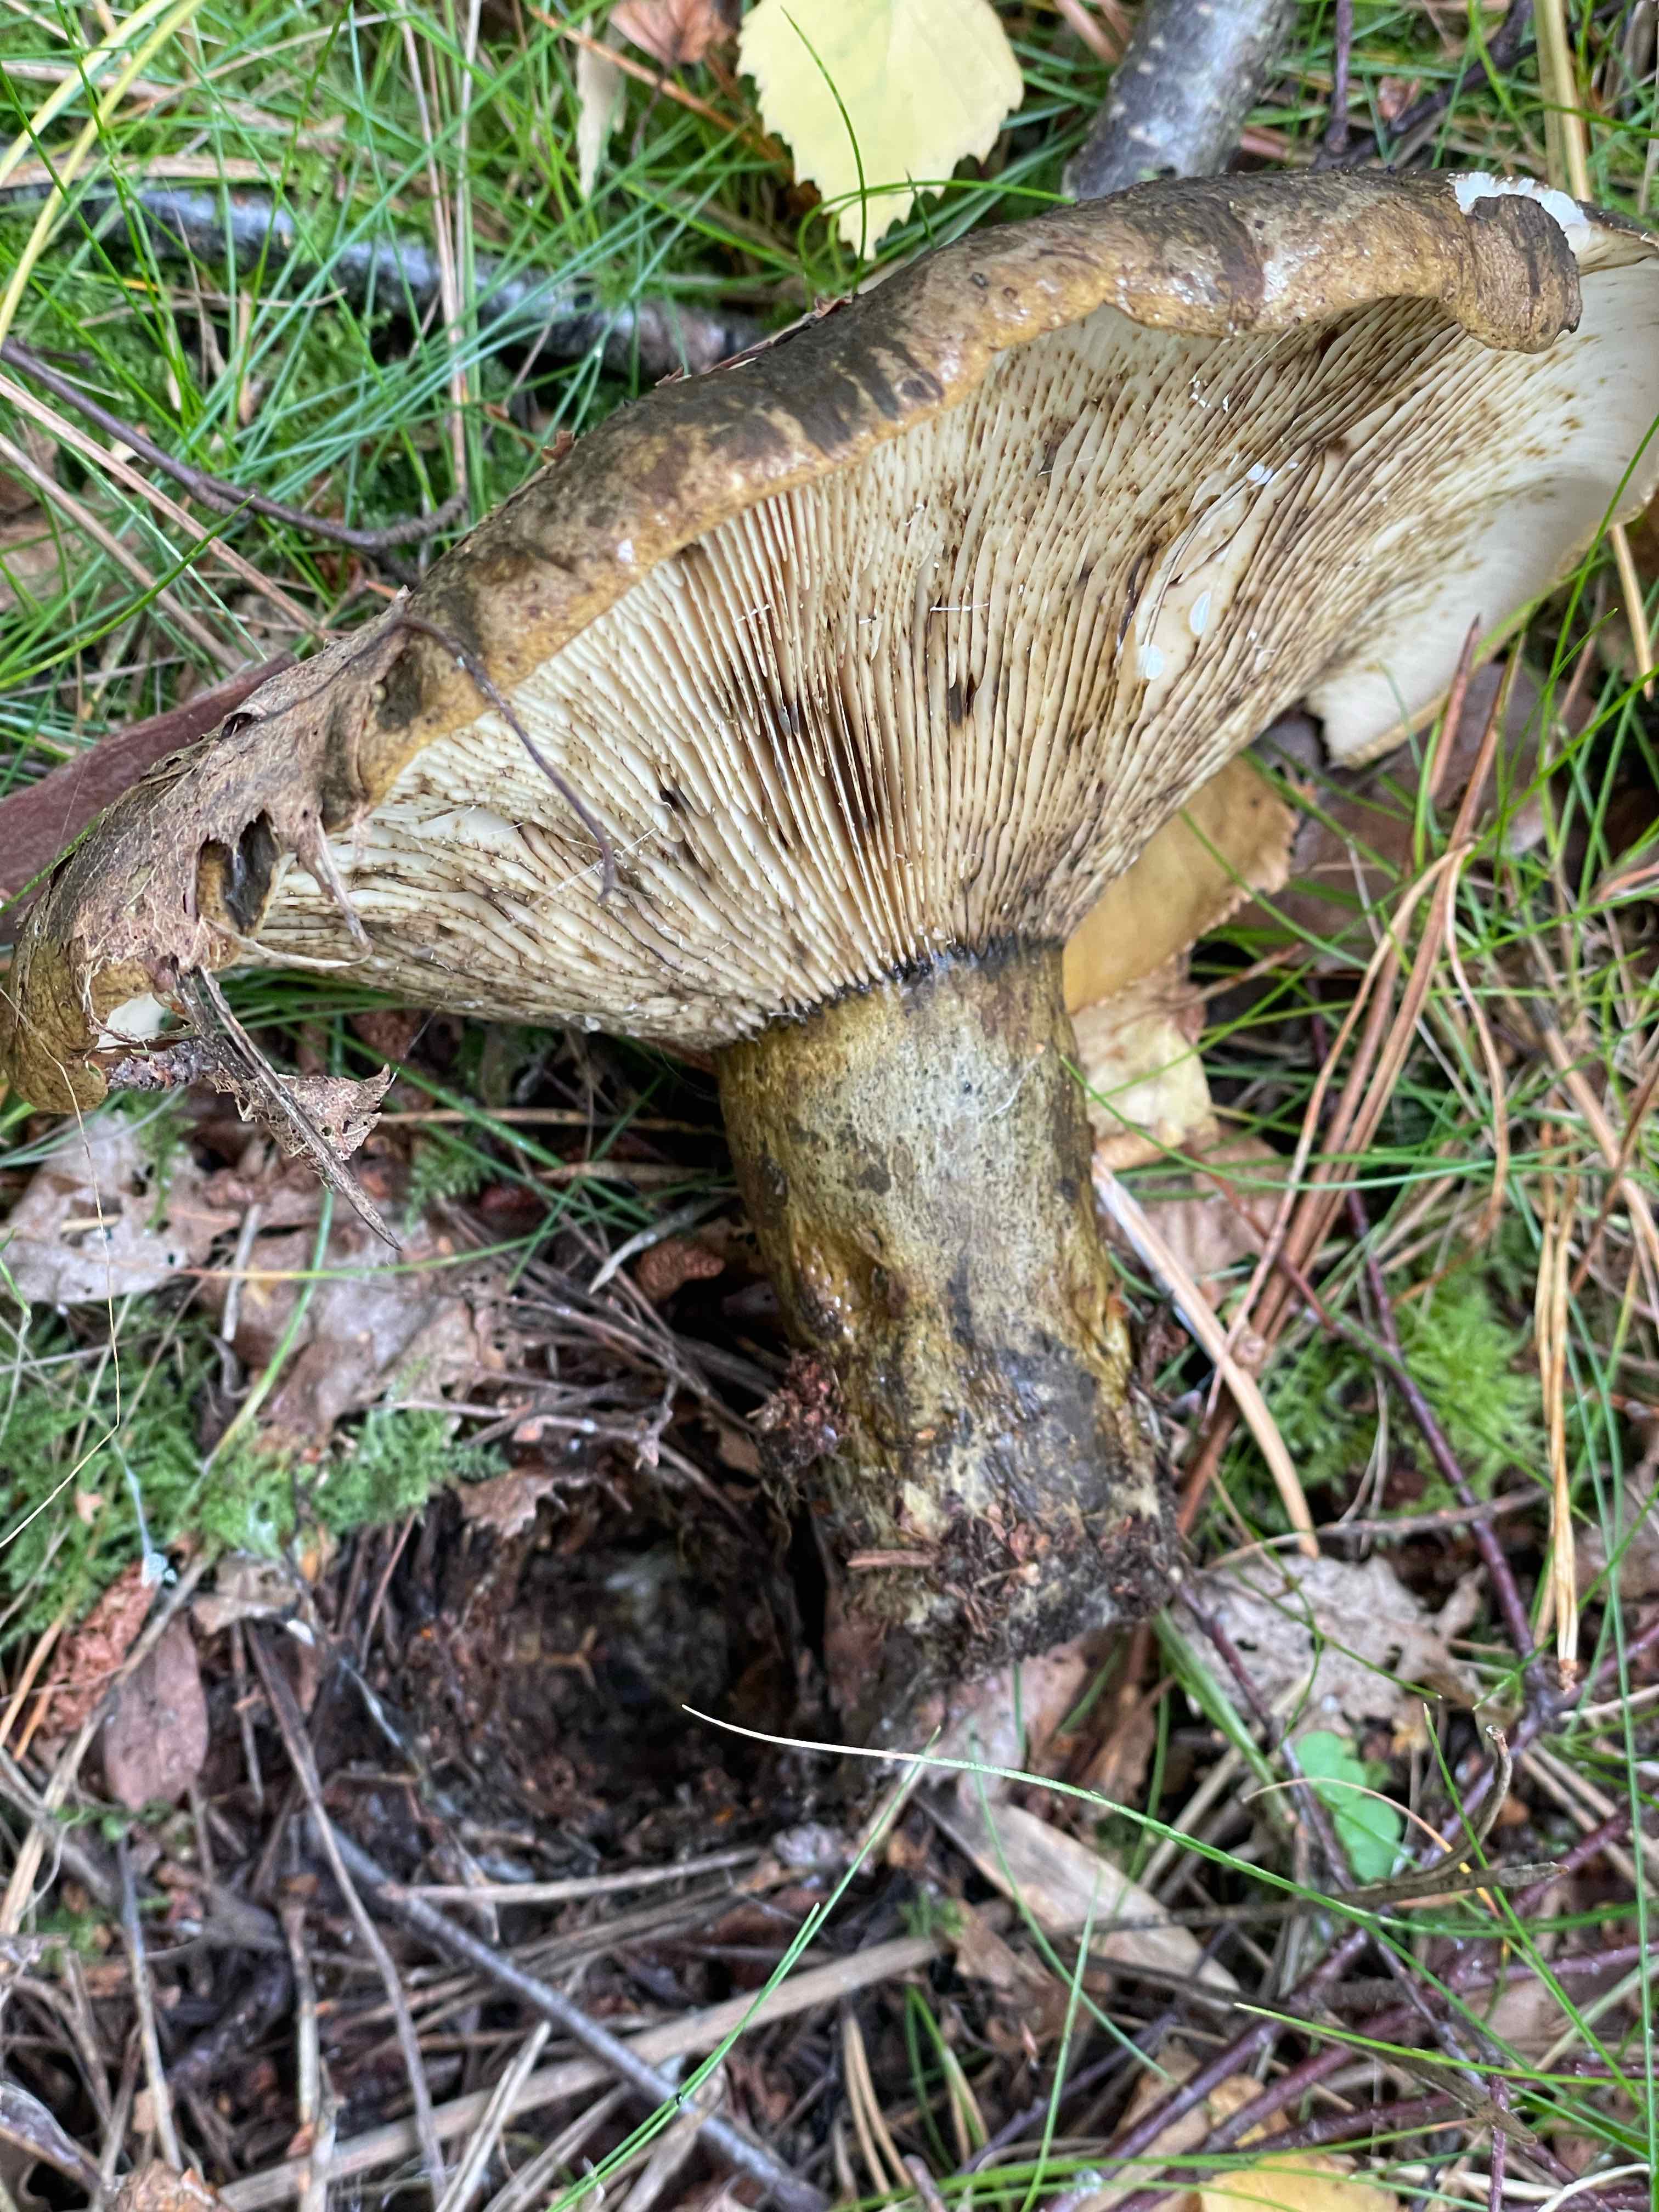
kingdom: Fungi
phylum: Basidiomycota
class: Agaricomycetes
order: Russulales
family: Russulaceae
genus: Lactarius
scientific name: Lactarius necator
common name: manddraber-mælkehat
